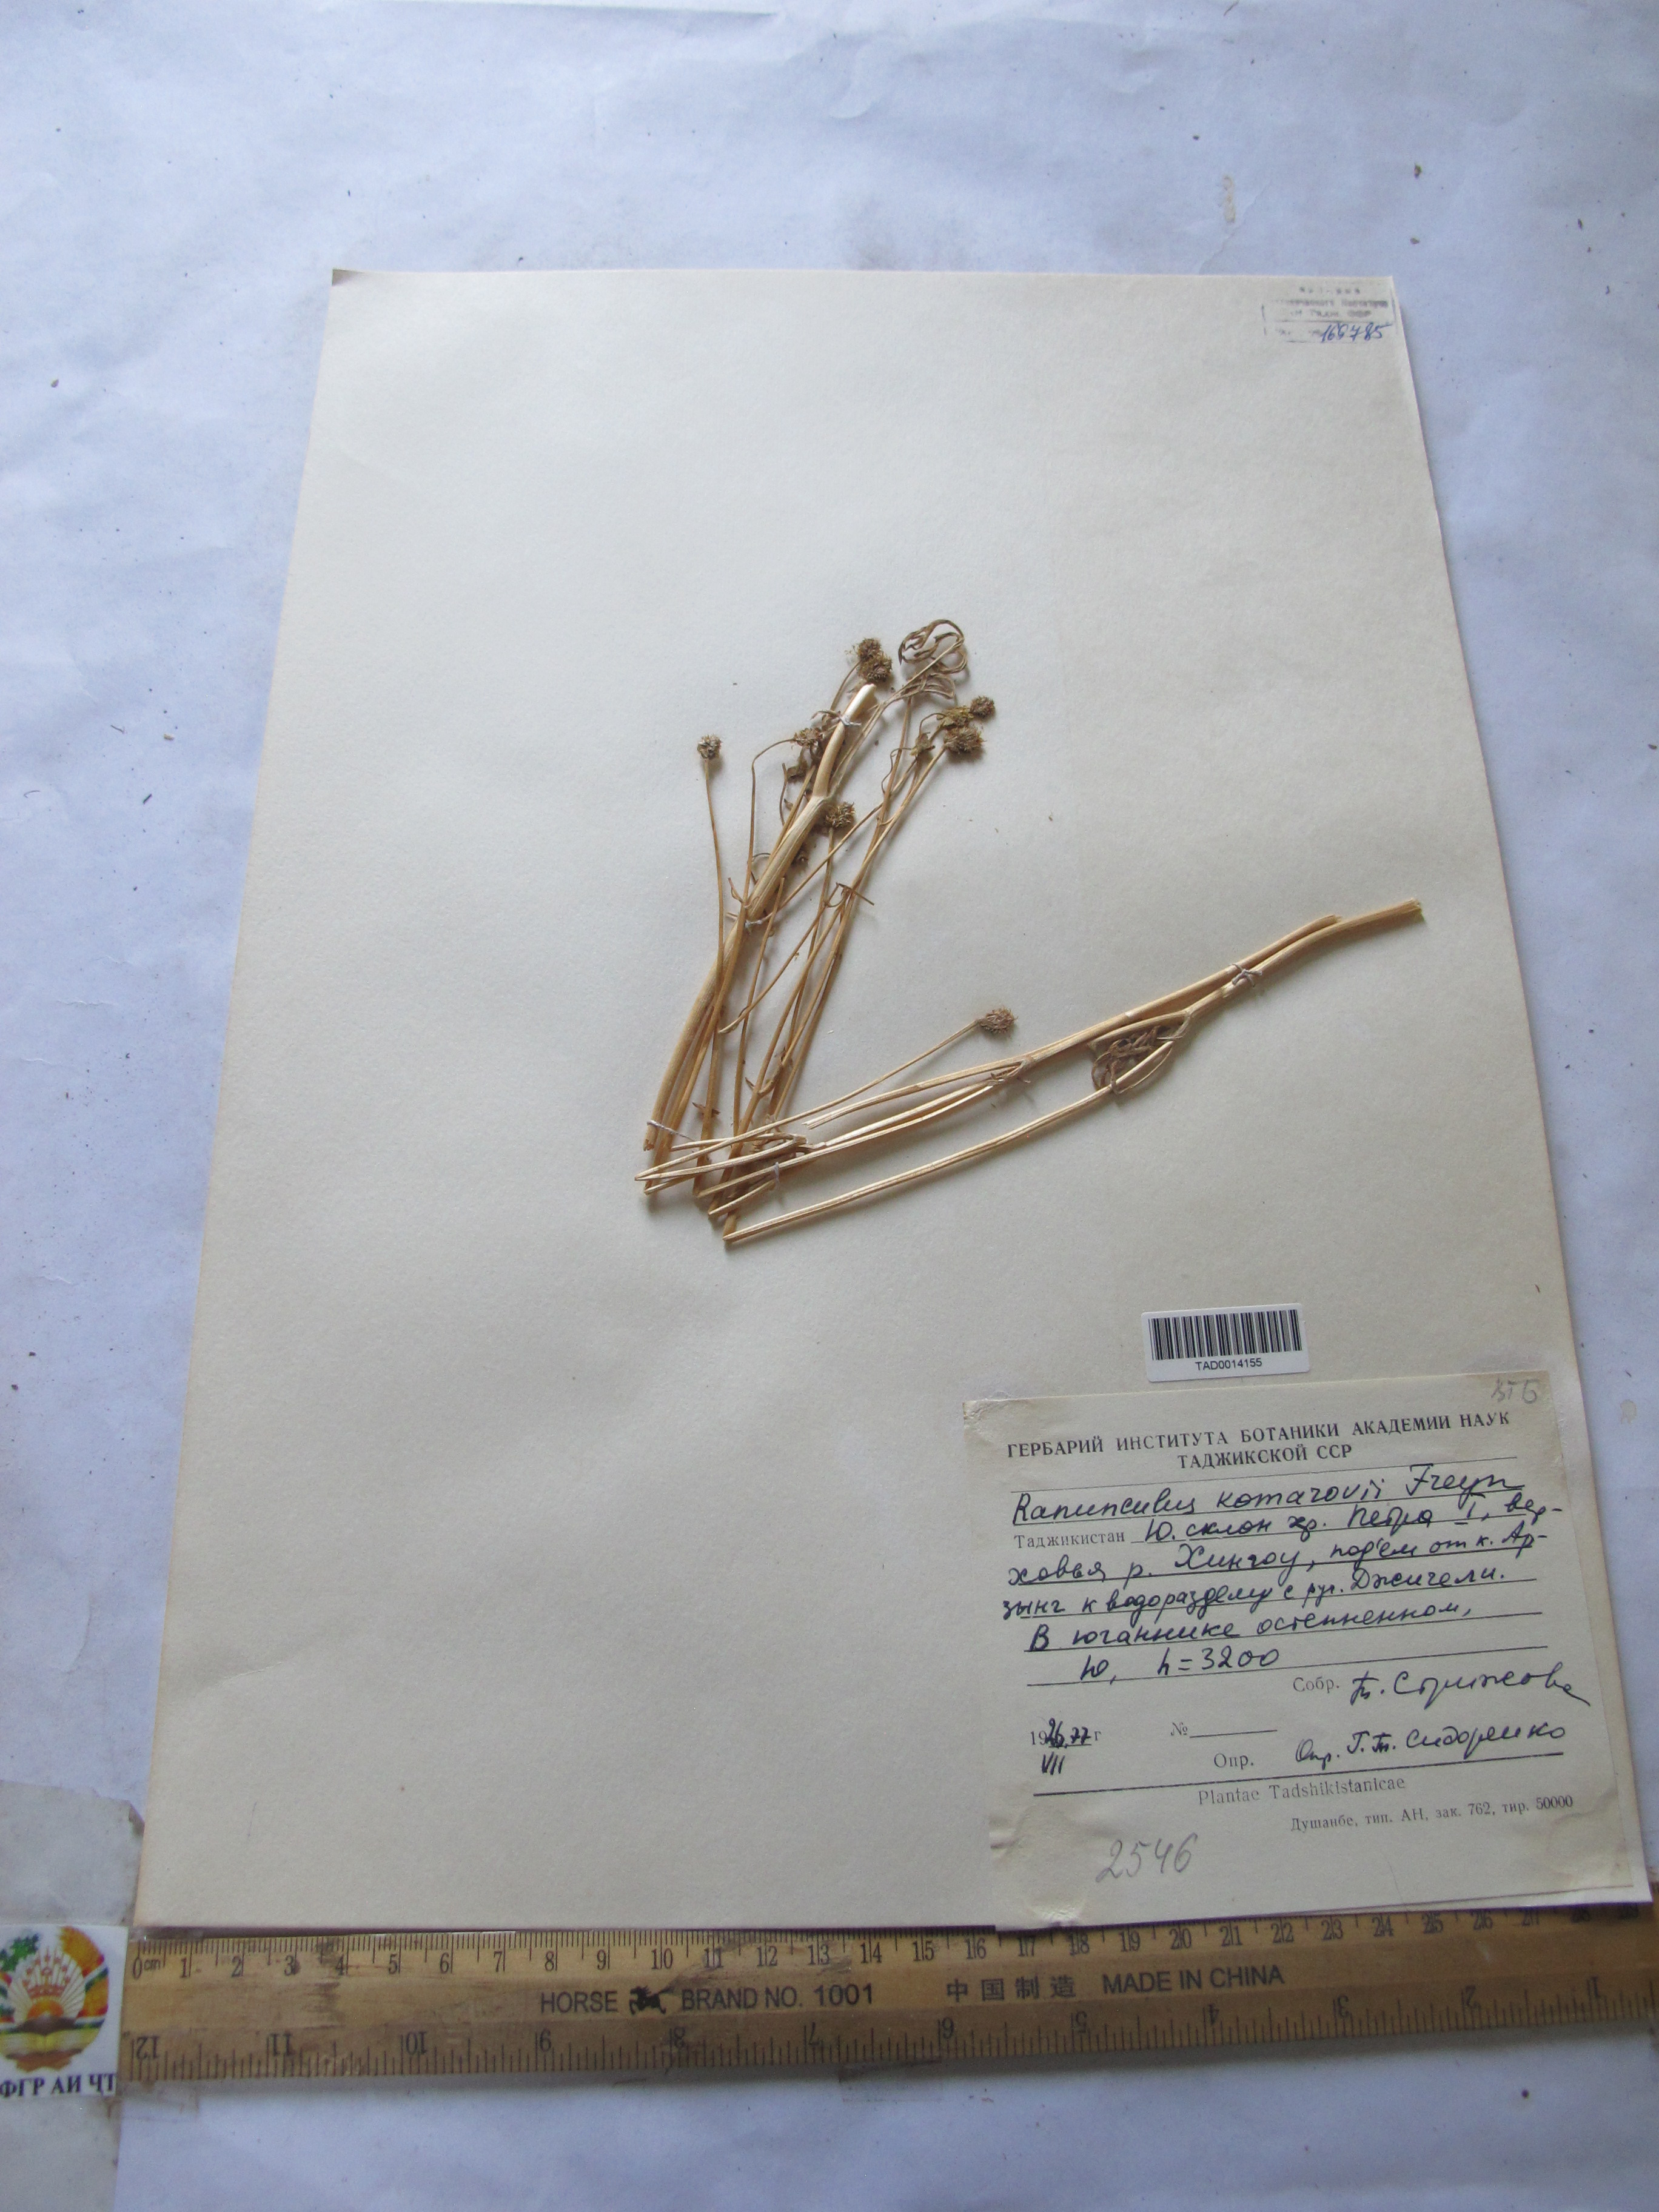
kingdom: Plantae
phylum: Tracheophyta
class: Magnoliopsida
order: Ranunculales
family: Ranunculaceae
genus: Ranunculus
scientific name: Ranunculus komarovii
